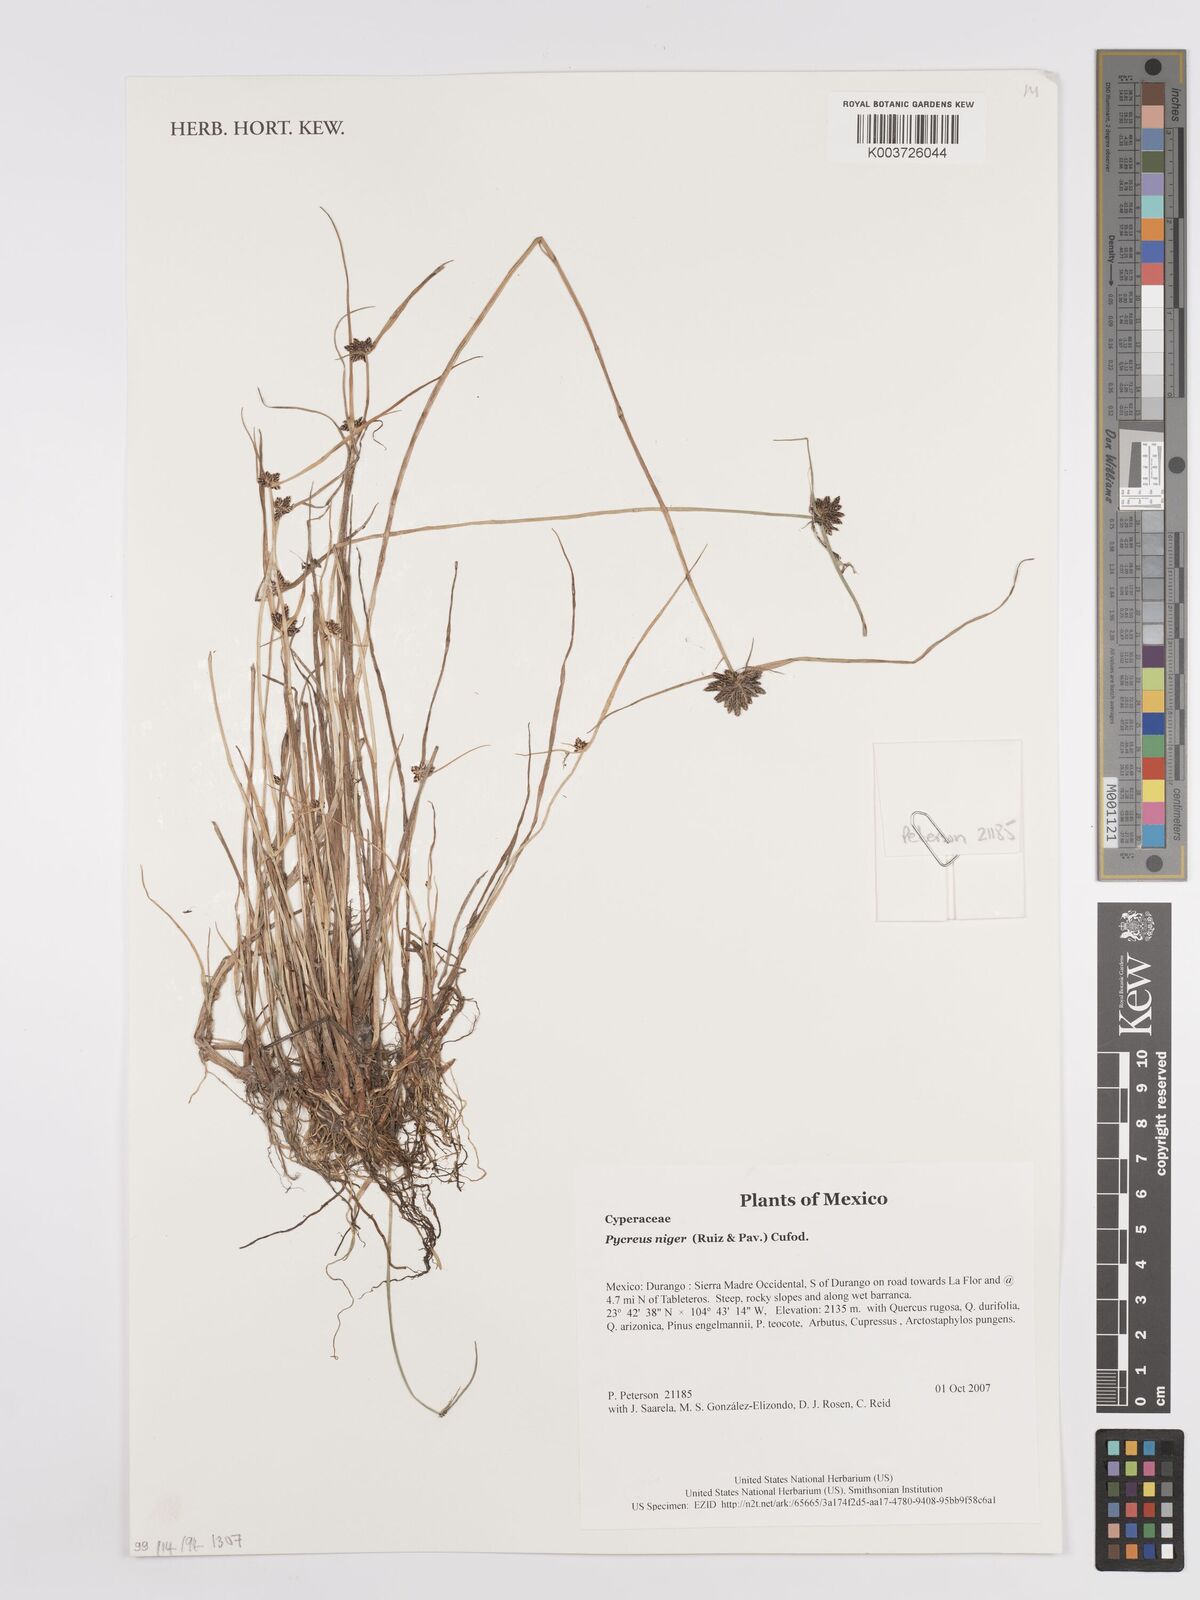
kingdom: Plantae
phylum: Tracheophyta
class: Liliopsida
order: Poales
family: Cyperaceae
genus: Cyperus
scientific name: Cyperus melanostachyus
